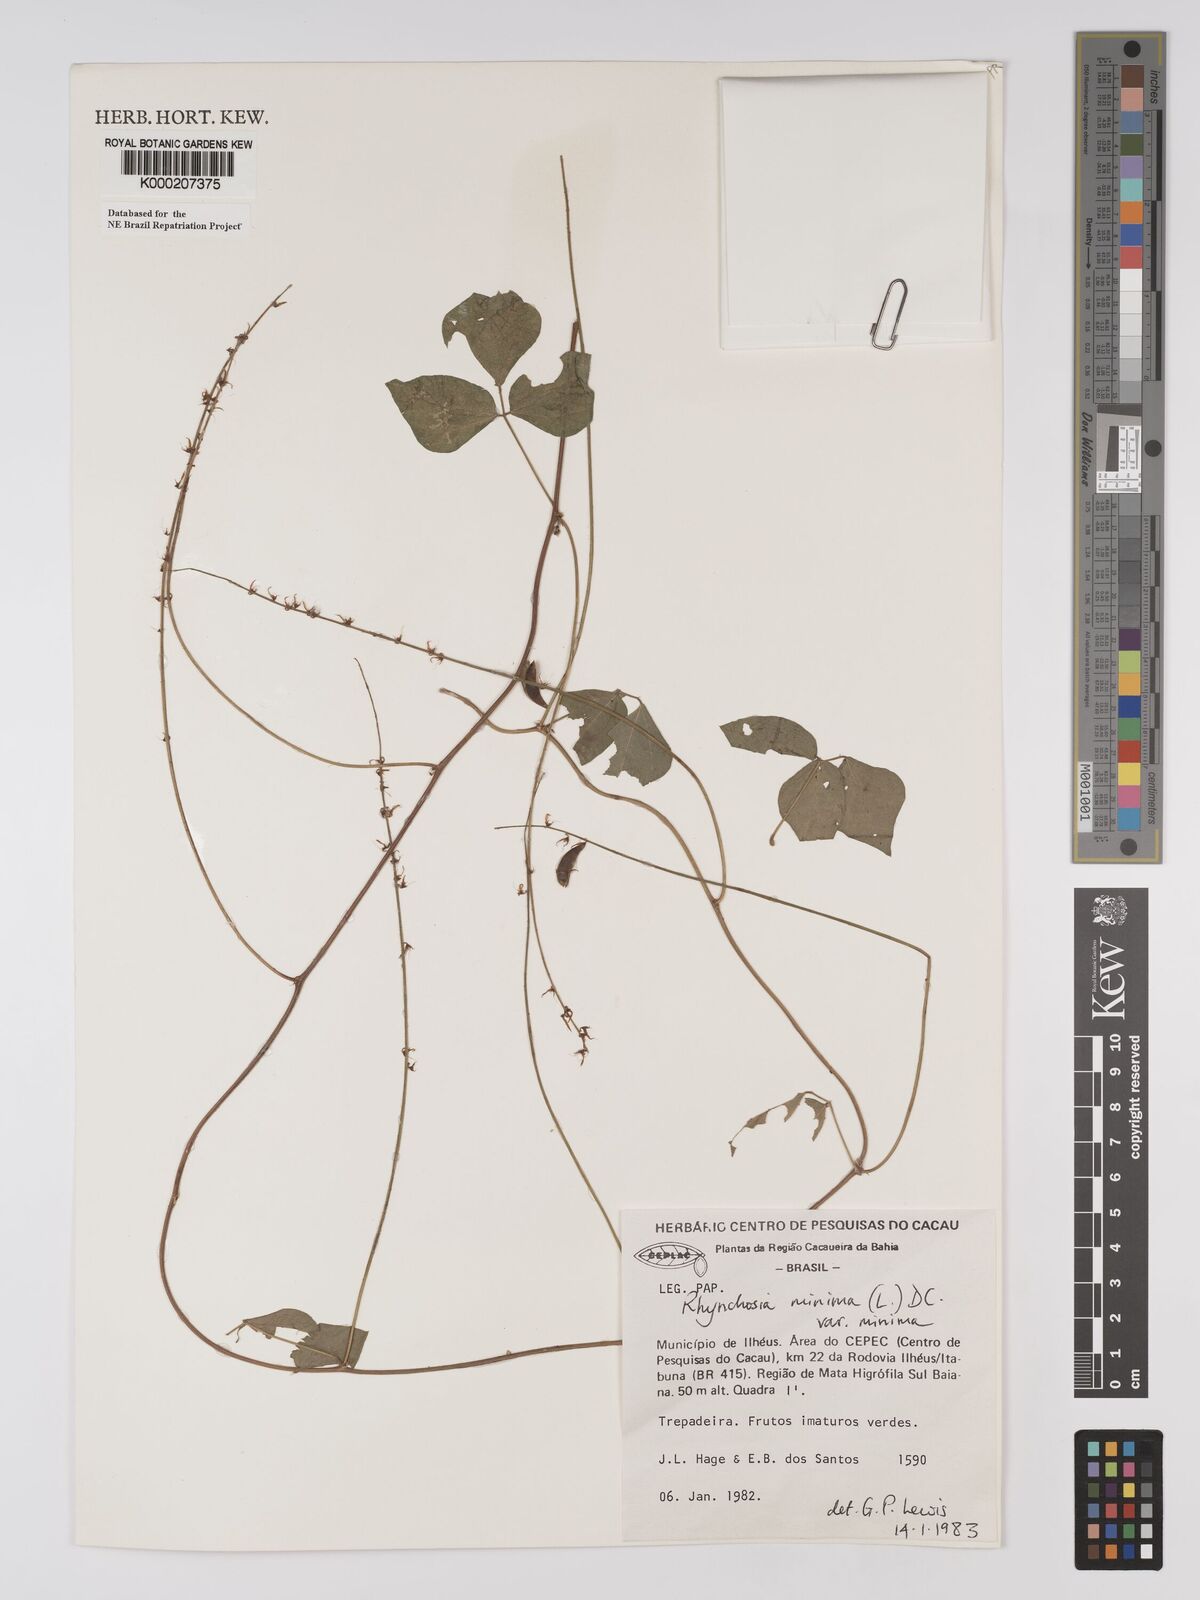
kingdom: Plantae
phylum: Tracheophyta
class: Magnoliopsida
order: Fabales
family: Fabaceae
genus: Rhynchosia
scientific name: Rhynchosia minima
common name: Least snoutbean
